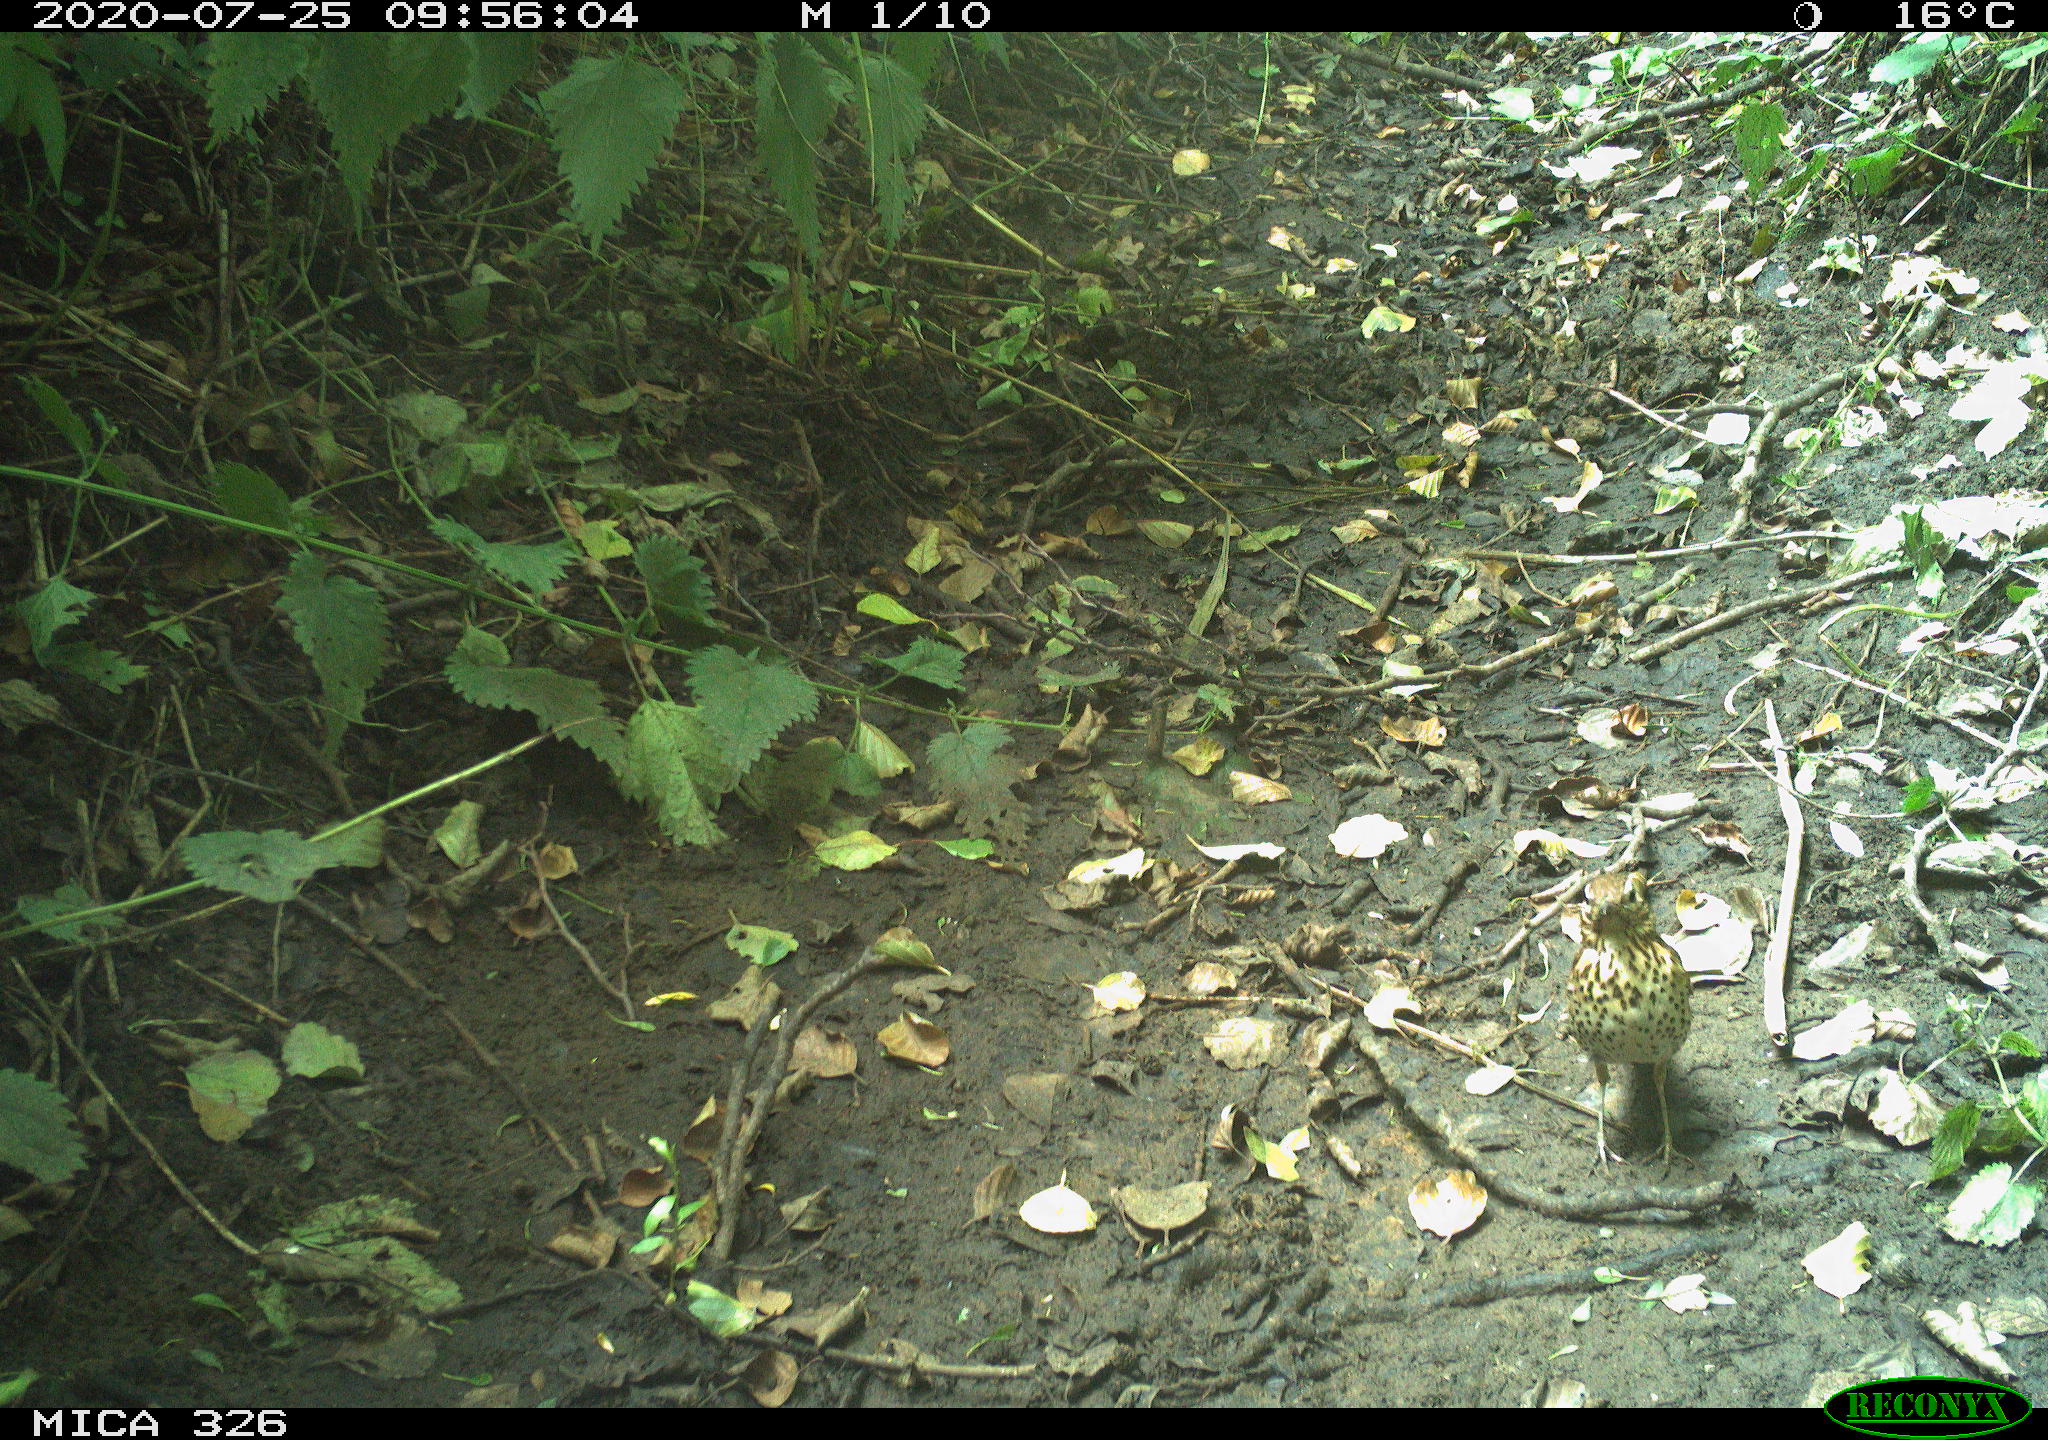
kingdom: Animalia
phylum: Chordata
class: Aves
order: Passeriformes
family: Turdidae
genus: Turdus
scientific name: Turdus philomelos
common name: Song thrush
